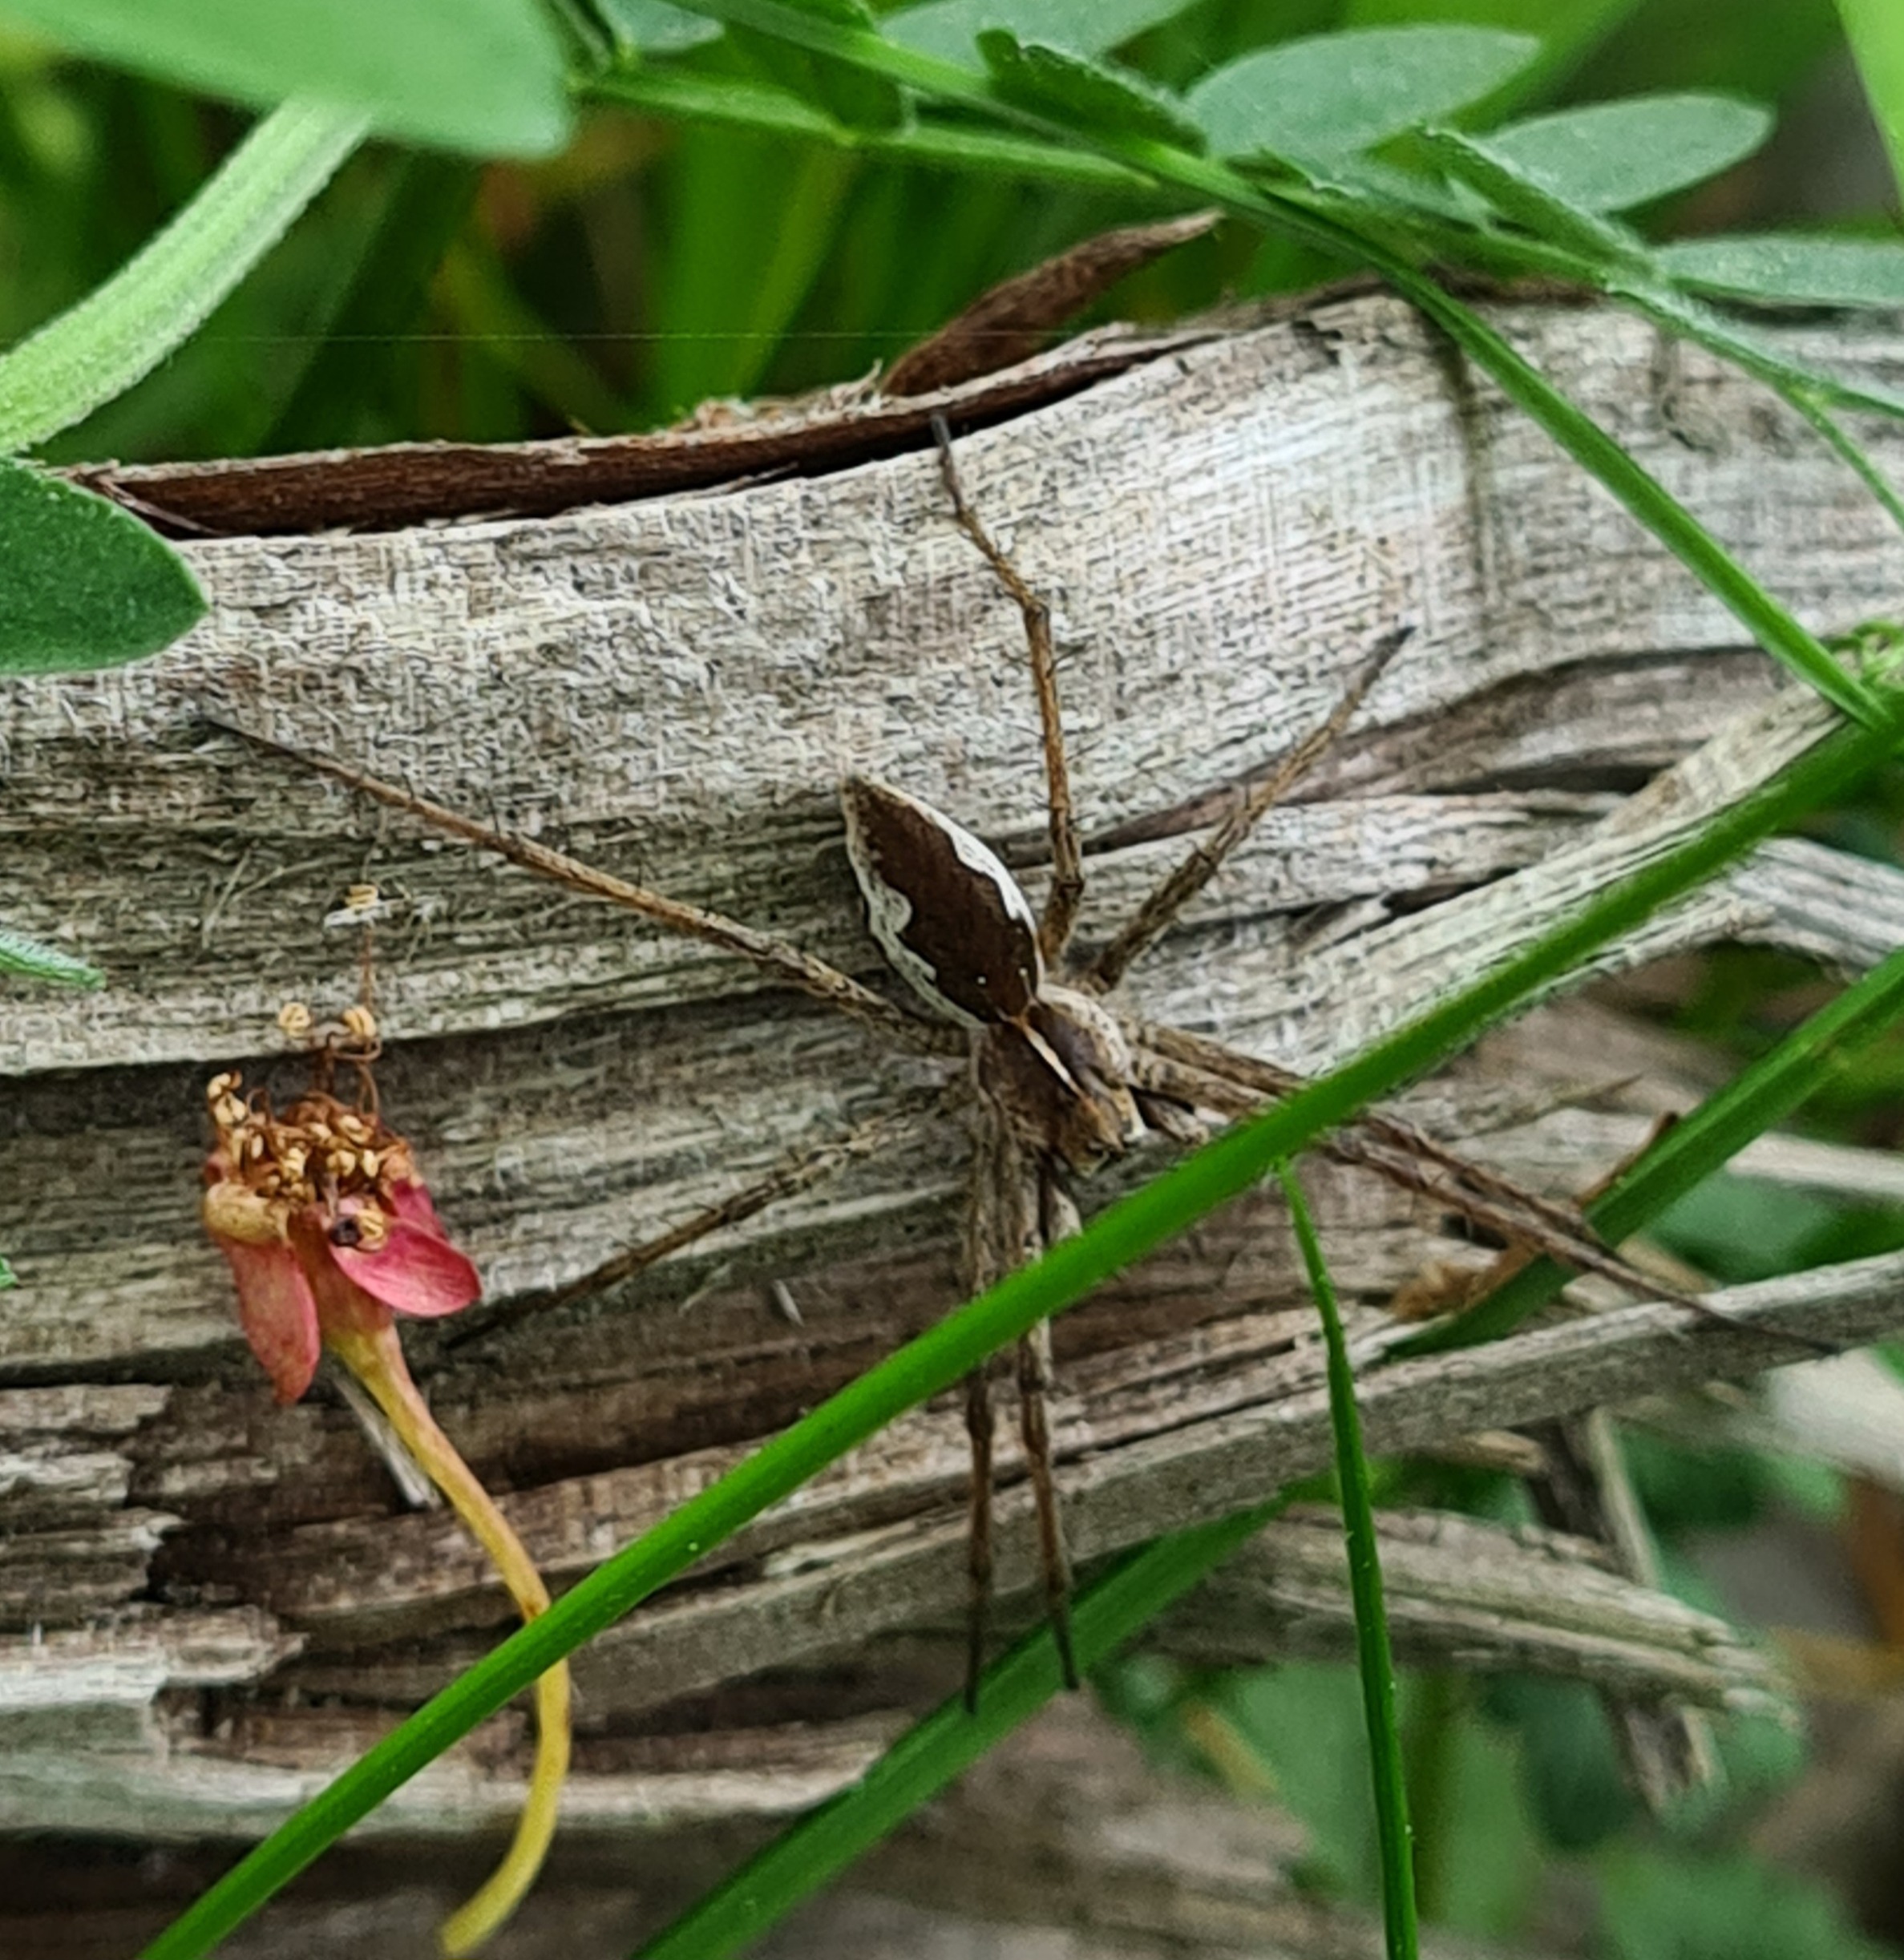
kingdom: Animalia
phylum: Arthropoda
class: Arachnida
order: Araneae
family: Pisauridae
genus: Pisaura
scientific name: Pisaura mirabilis
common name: Almindelig rovedderkop
